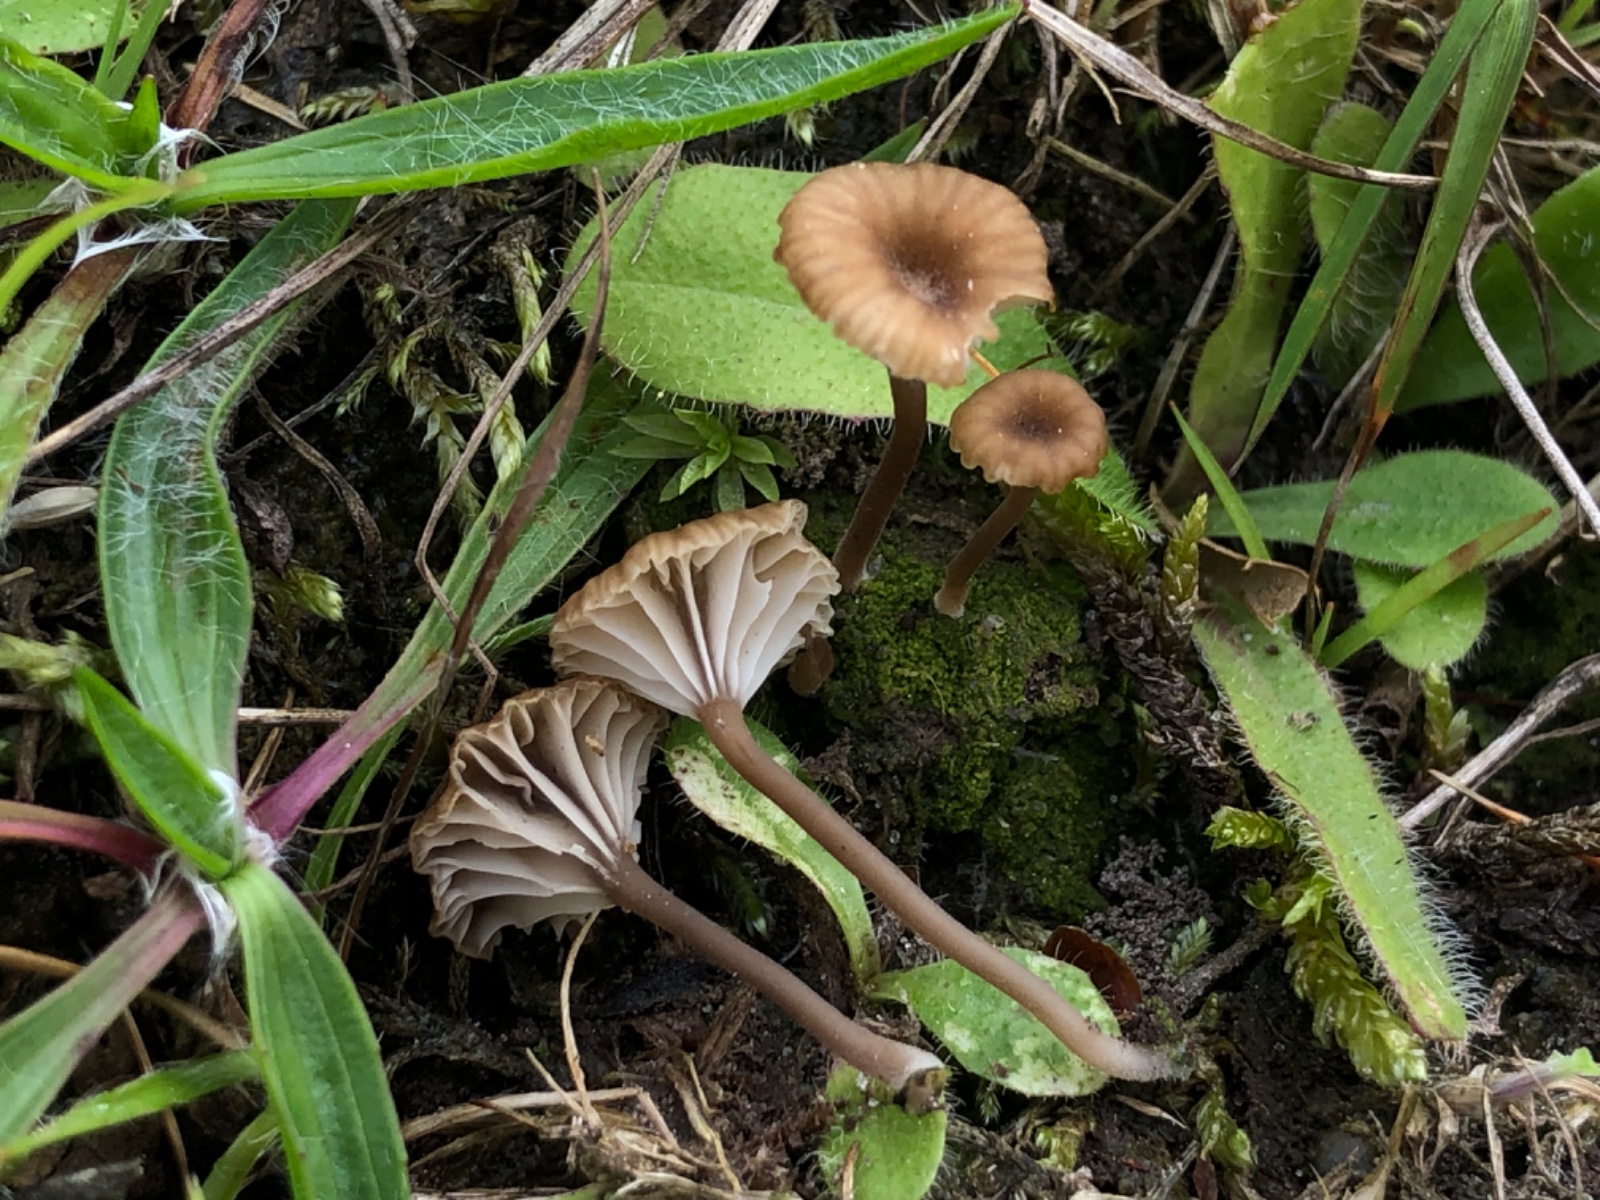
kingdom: Fungi
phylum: Basidiomycota
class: Agaricomycetes
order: Agaricales
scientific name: Agaricales
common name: champignonordenen
